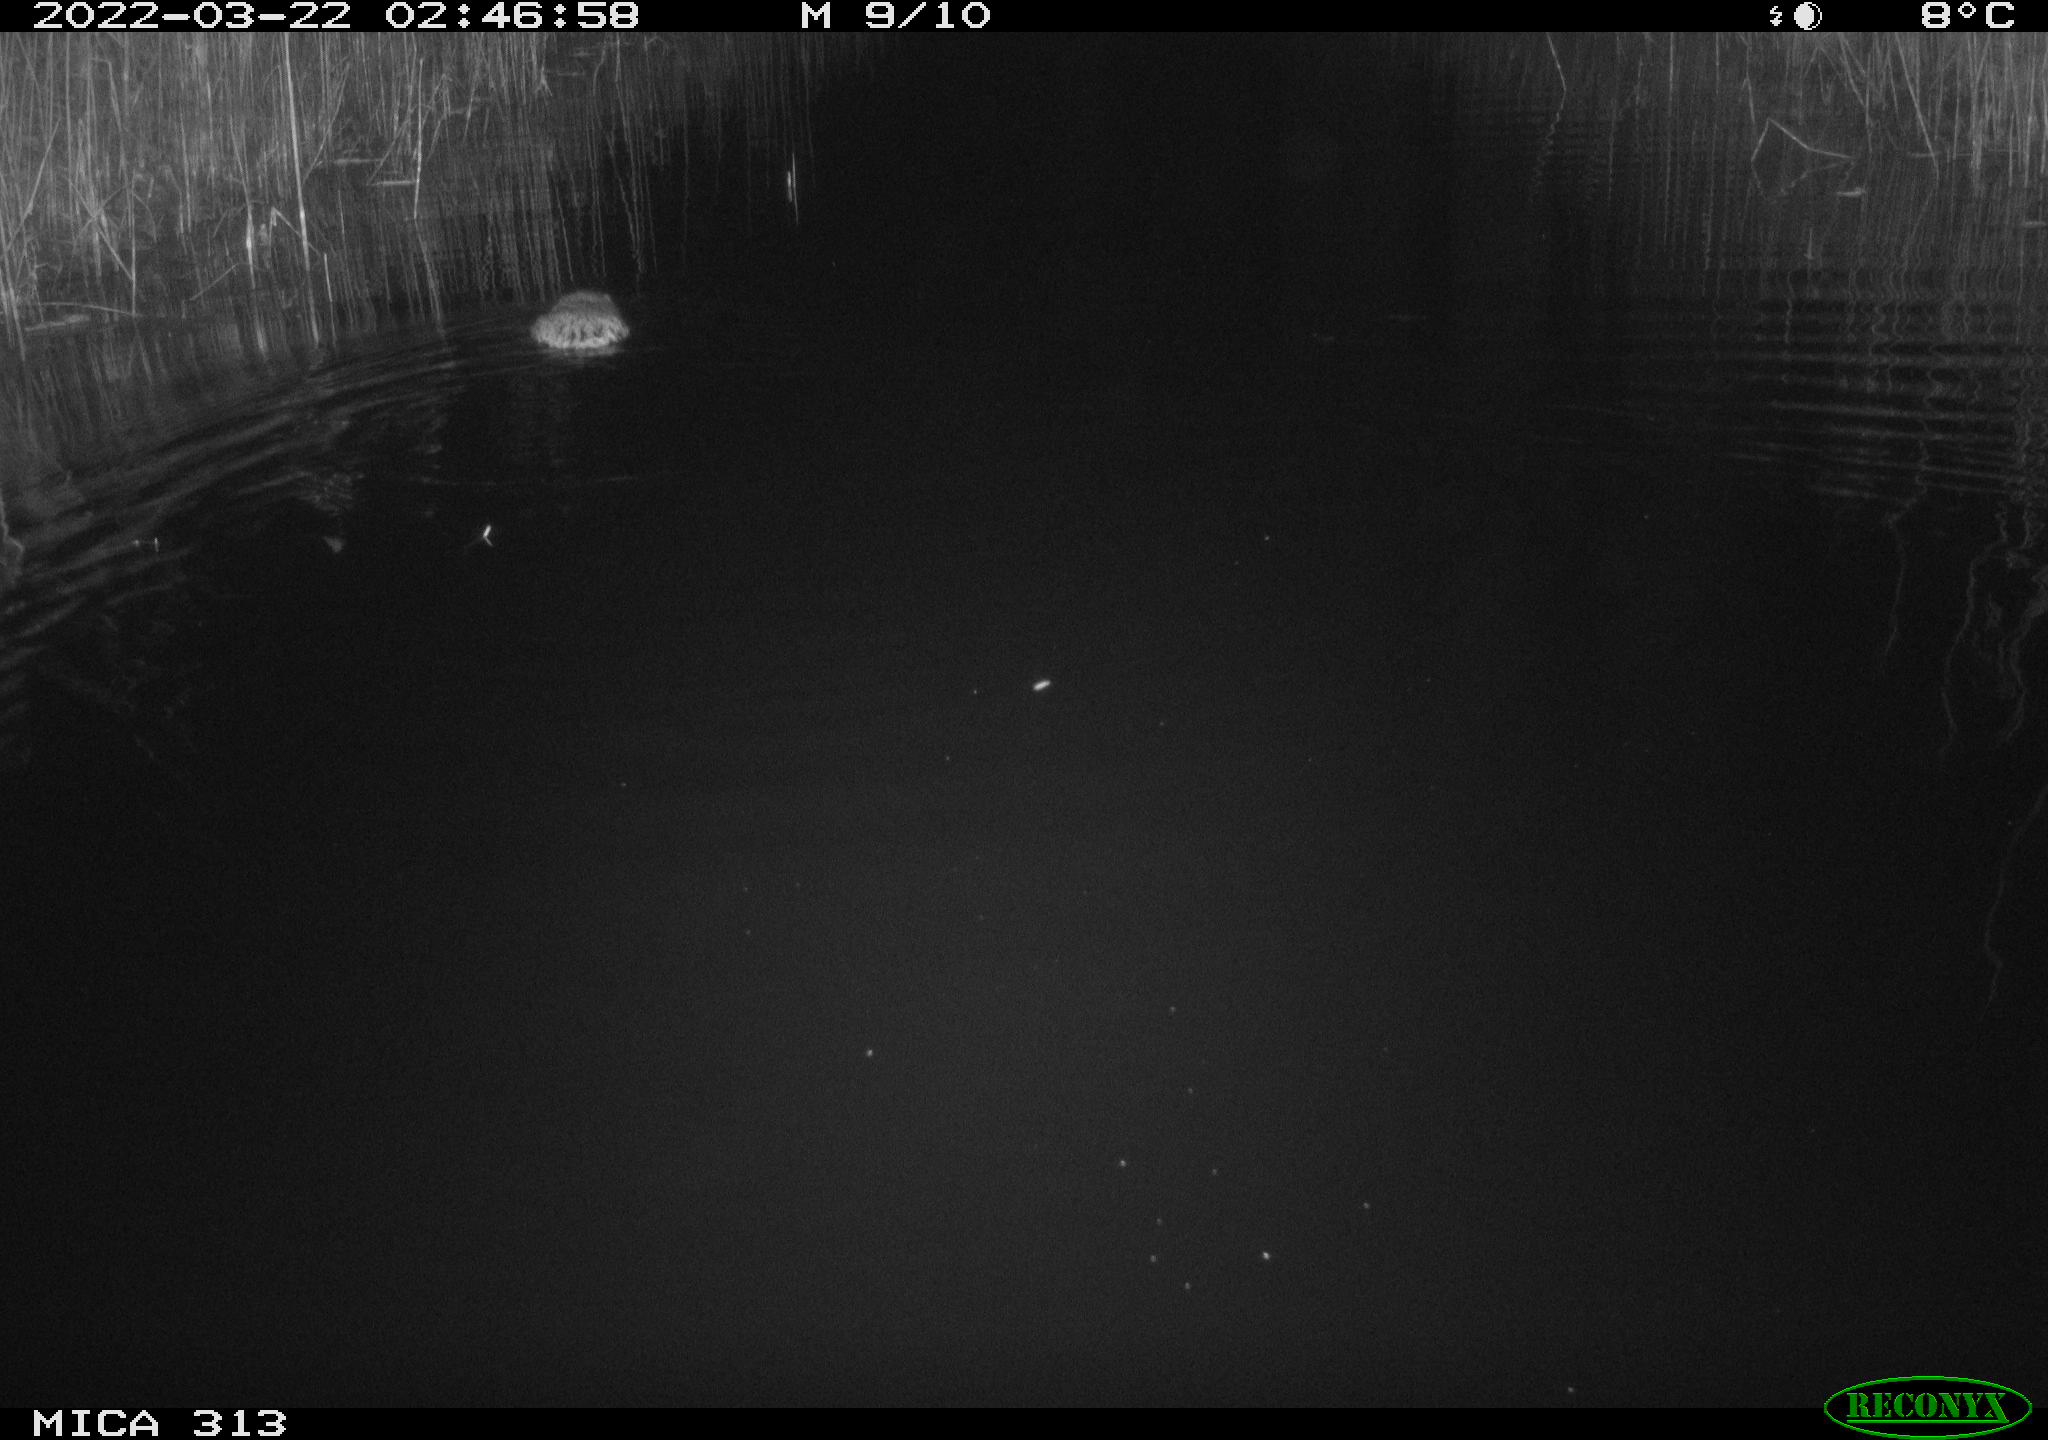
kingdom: Animalia
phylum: Chordata
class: Mammalia
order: Rodentia
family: Cricetidae
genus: Ondatra
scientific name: Ondatra zibethicus
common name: Muskrat
